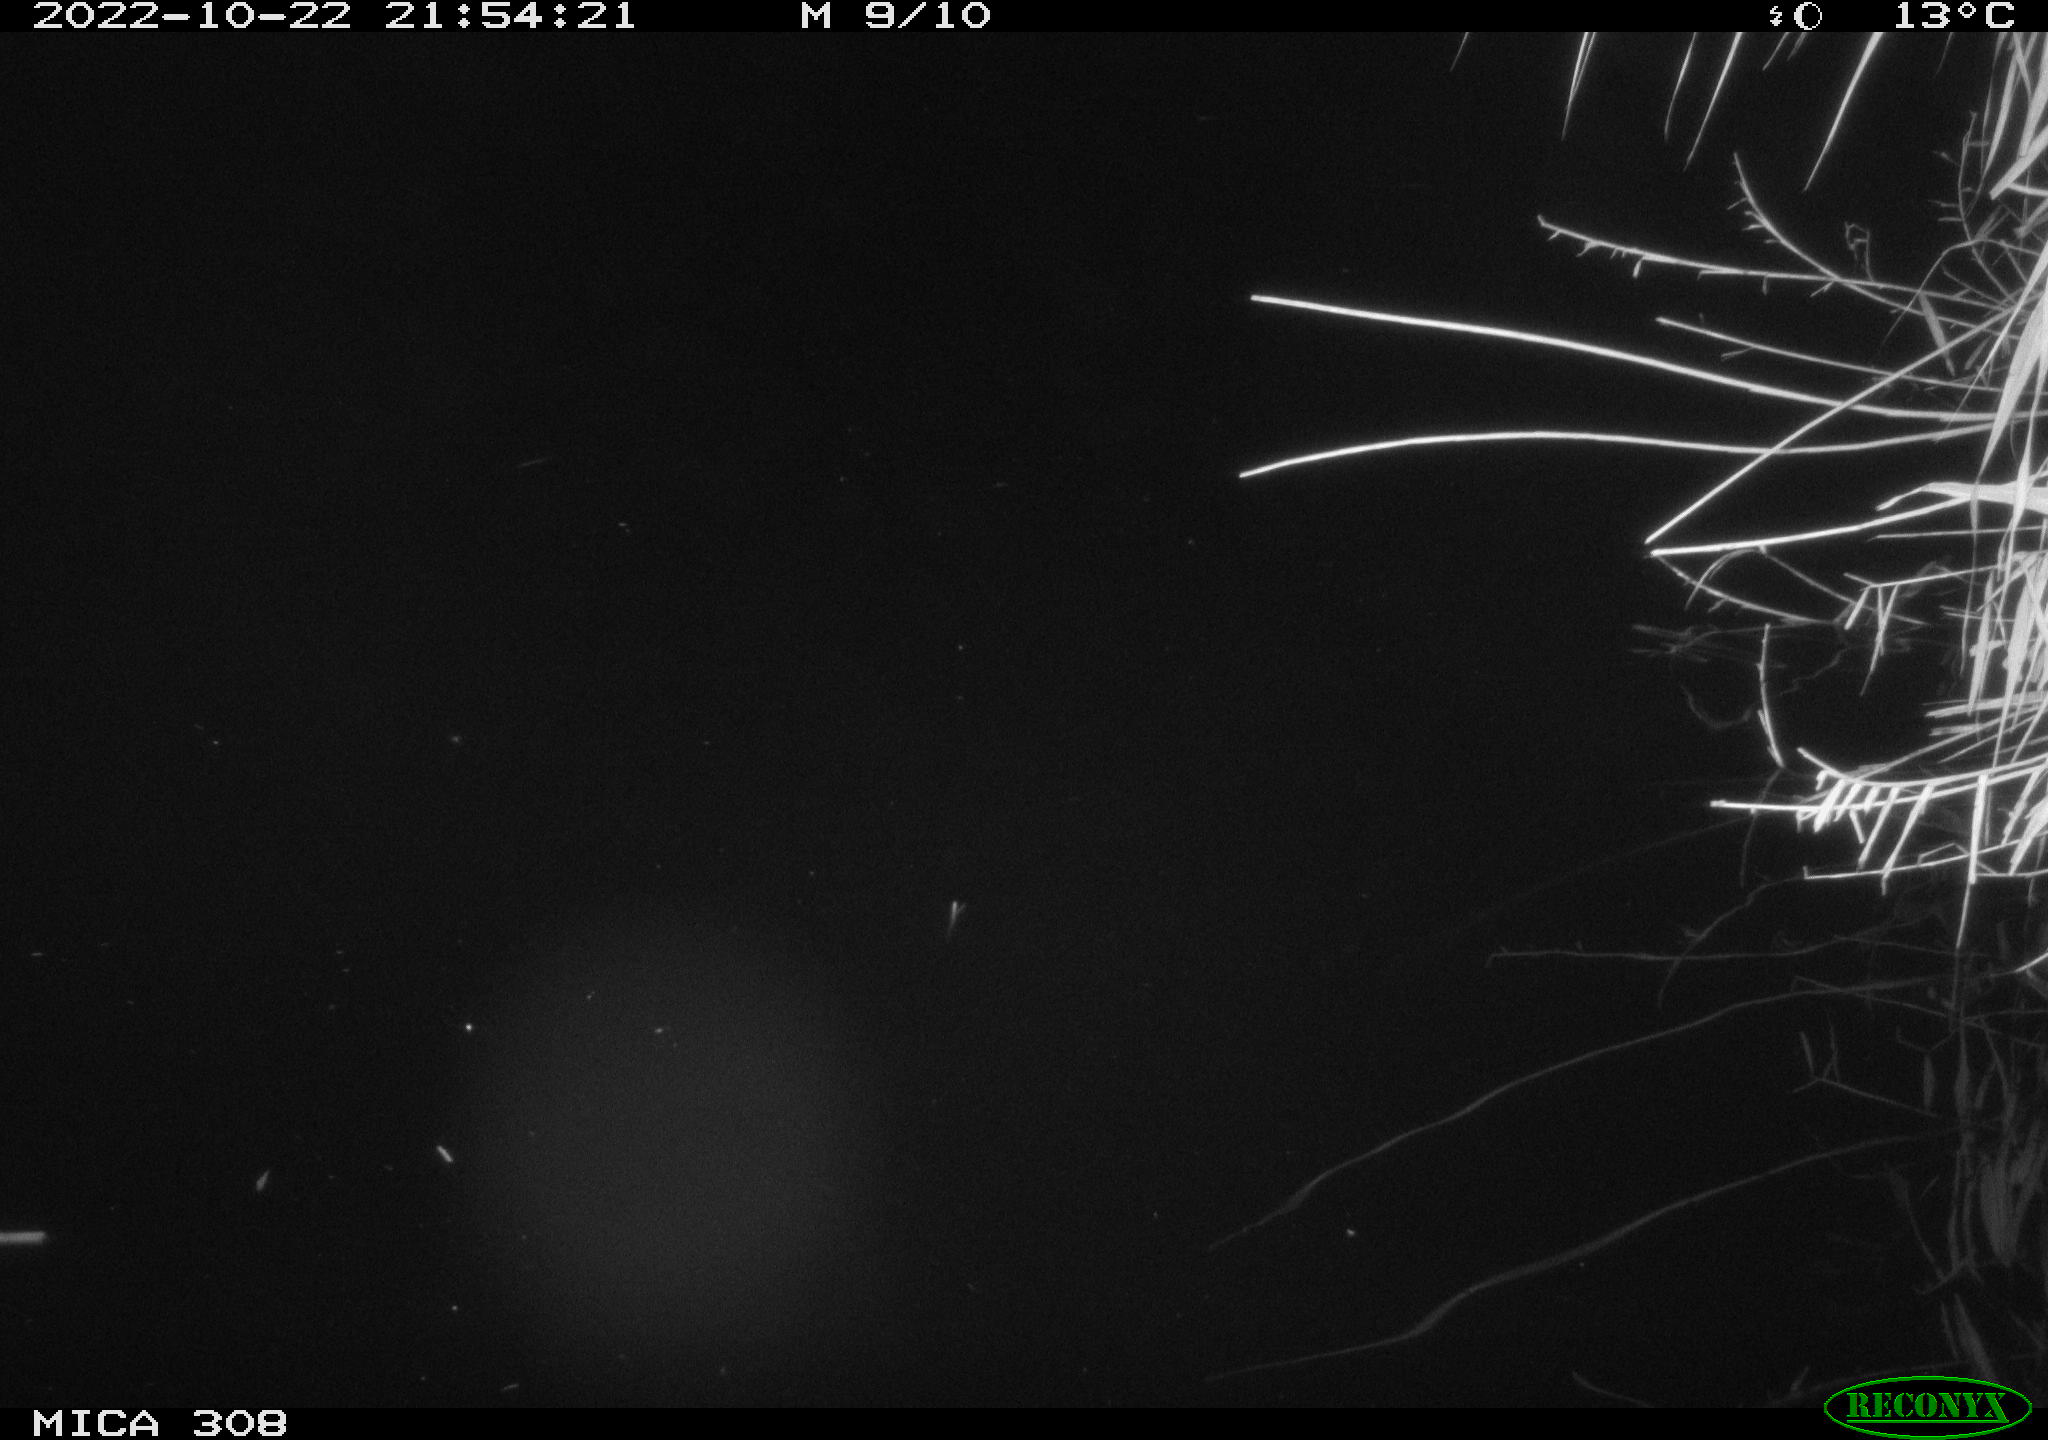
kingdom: Animalia
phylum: Chordata
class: Mammalia
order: Rodentia
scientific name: Rodentia
